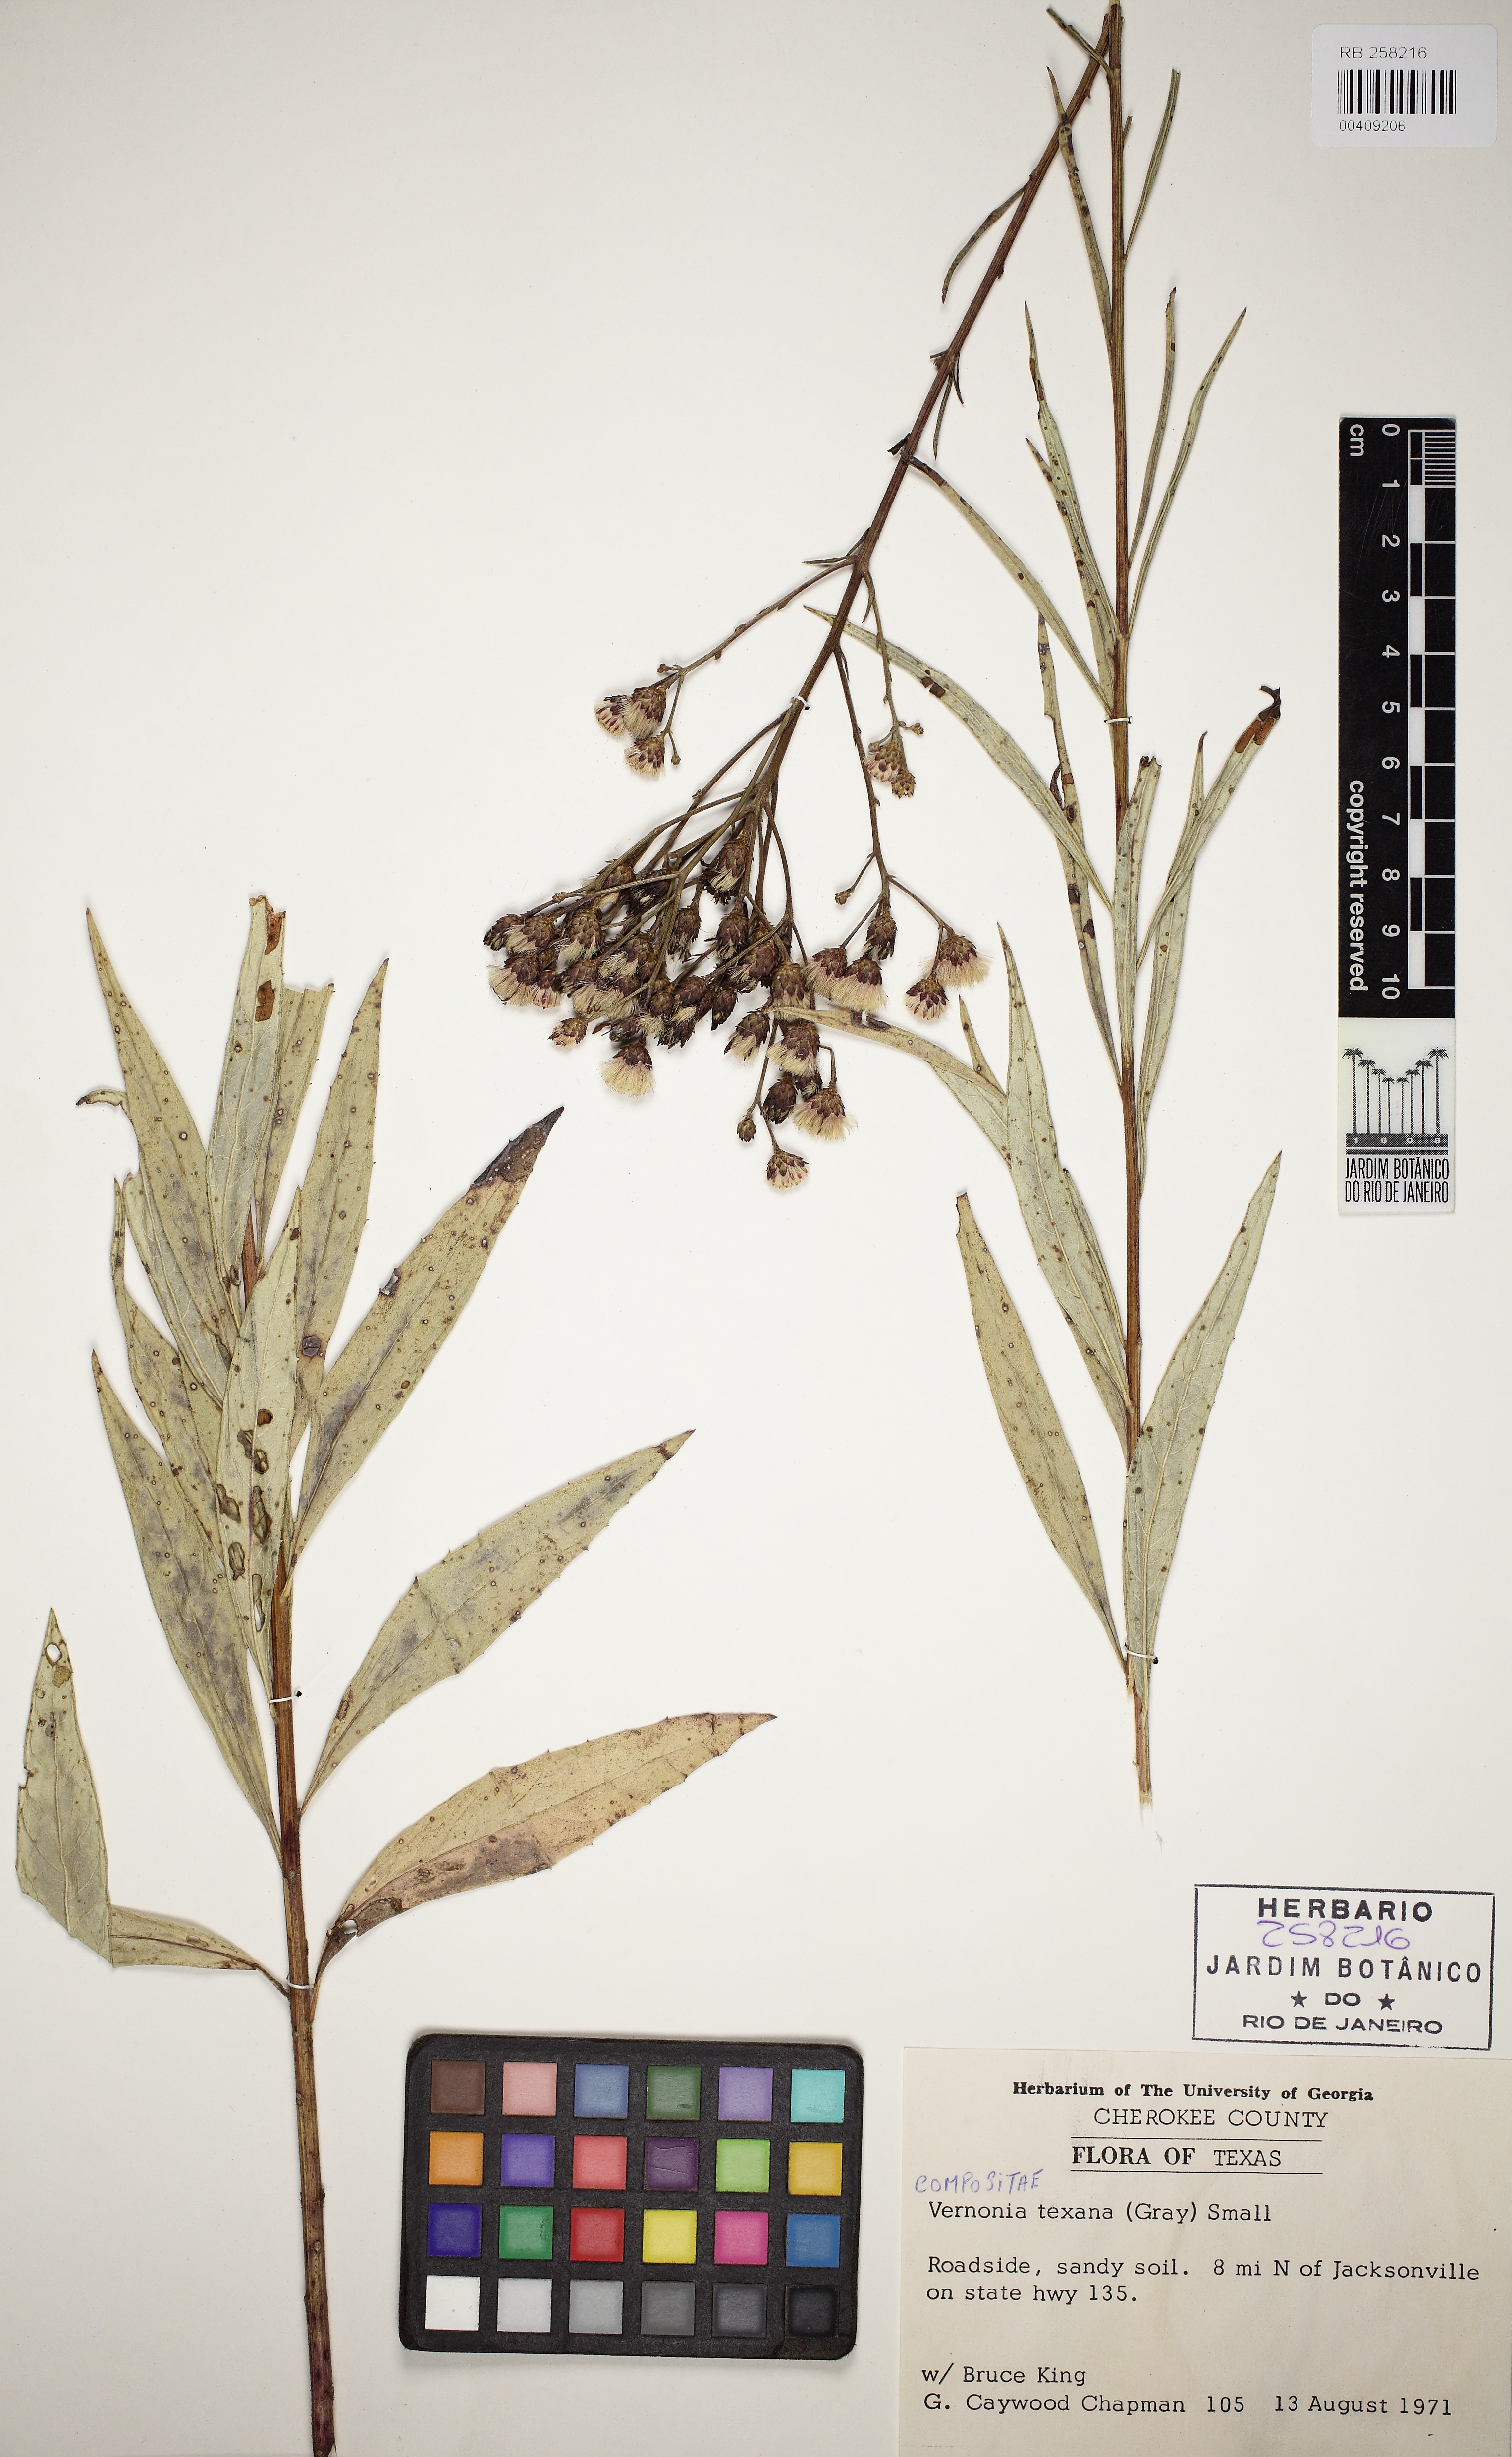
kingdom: Plantae
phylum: Tracheophyta
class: Magnoliopsida
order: Asterales
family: Asteraceae
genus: Vernonia
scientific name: Vernonia texana
